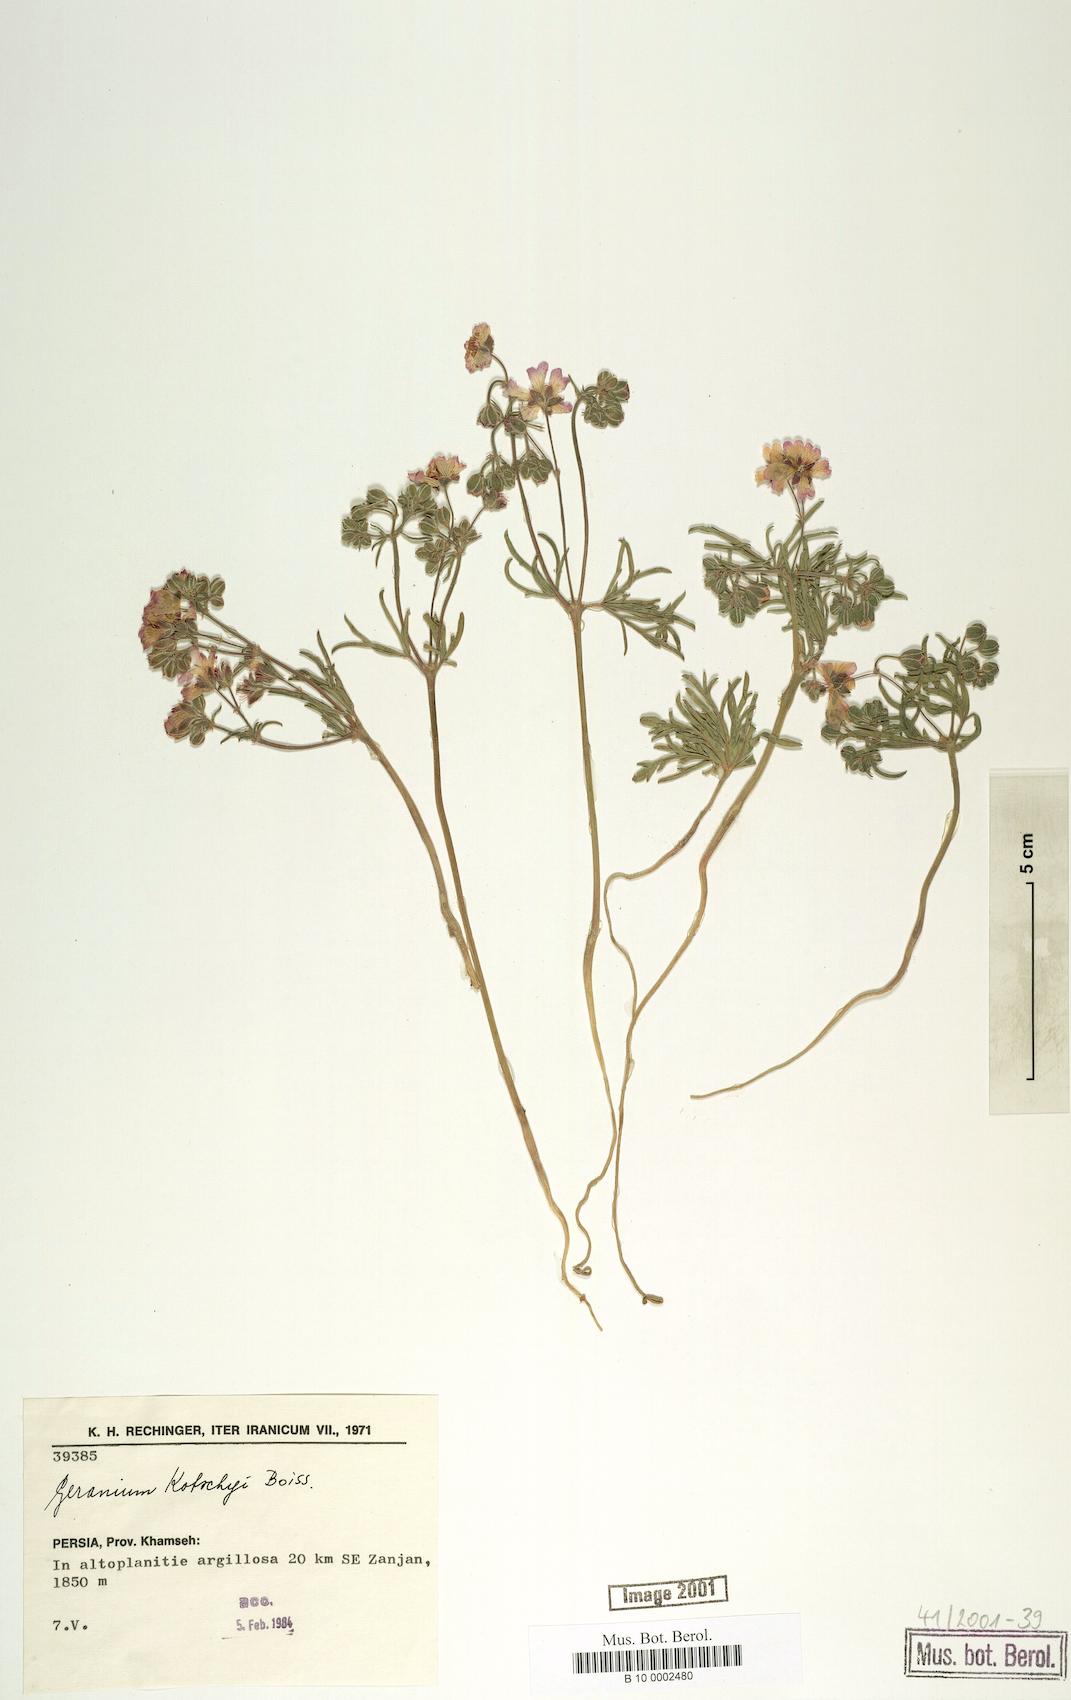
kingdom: Plantae
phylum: Tracheophyta
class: Magnoliopsida
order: Geraniales
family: Geraniaceae
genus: Geranium
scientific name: Geranium kotschyi
